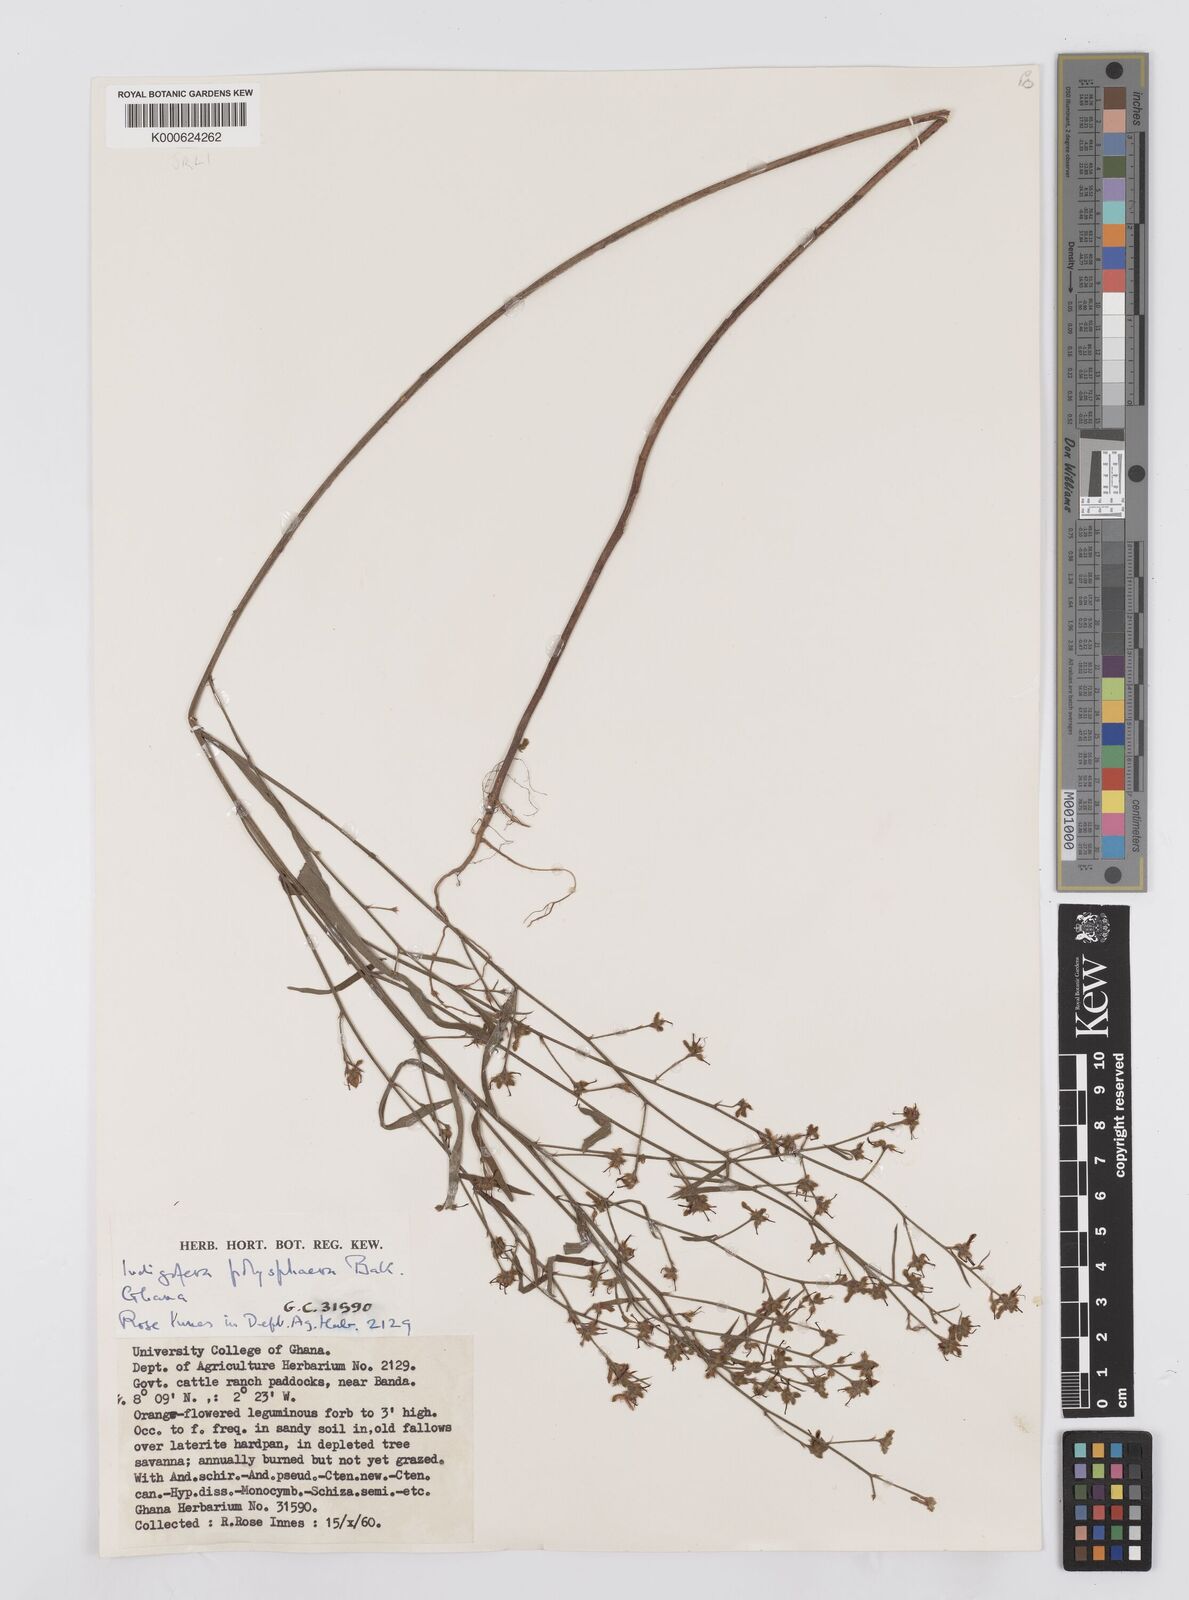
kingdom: Plantae
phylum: Tracheophyta
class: Magnoliopsida
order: Fabales
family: Fabaceae
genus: Indigofera
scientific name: Indigofera polysphaera
